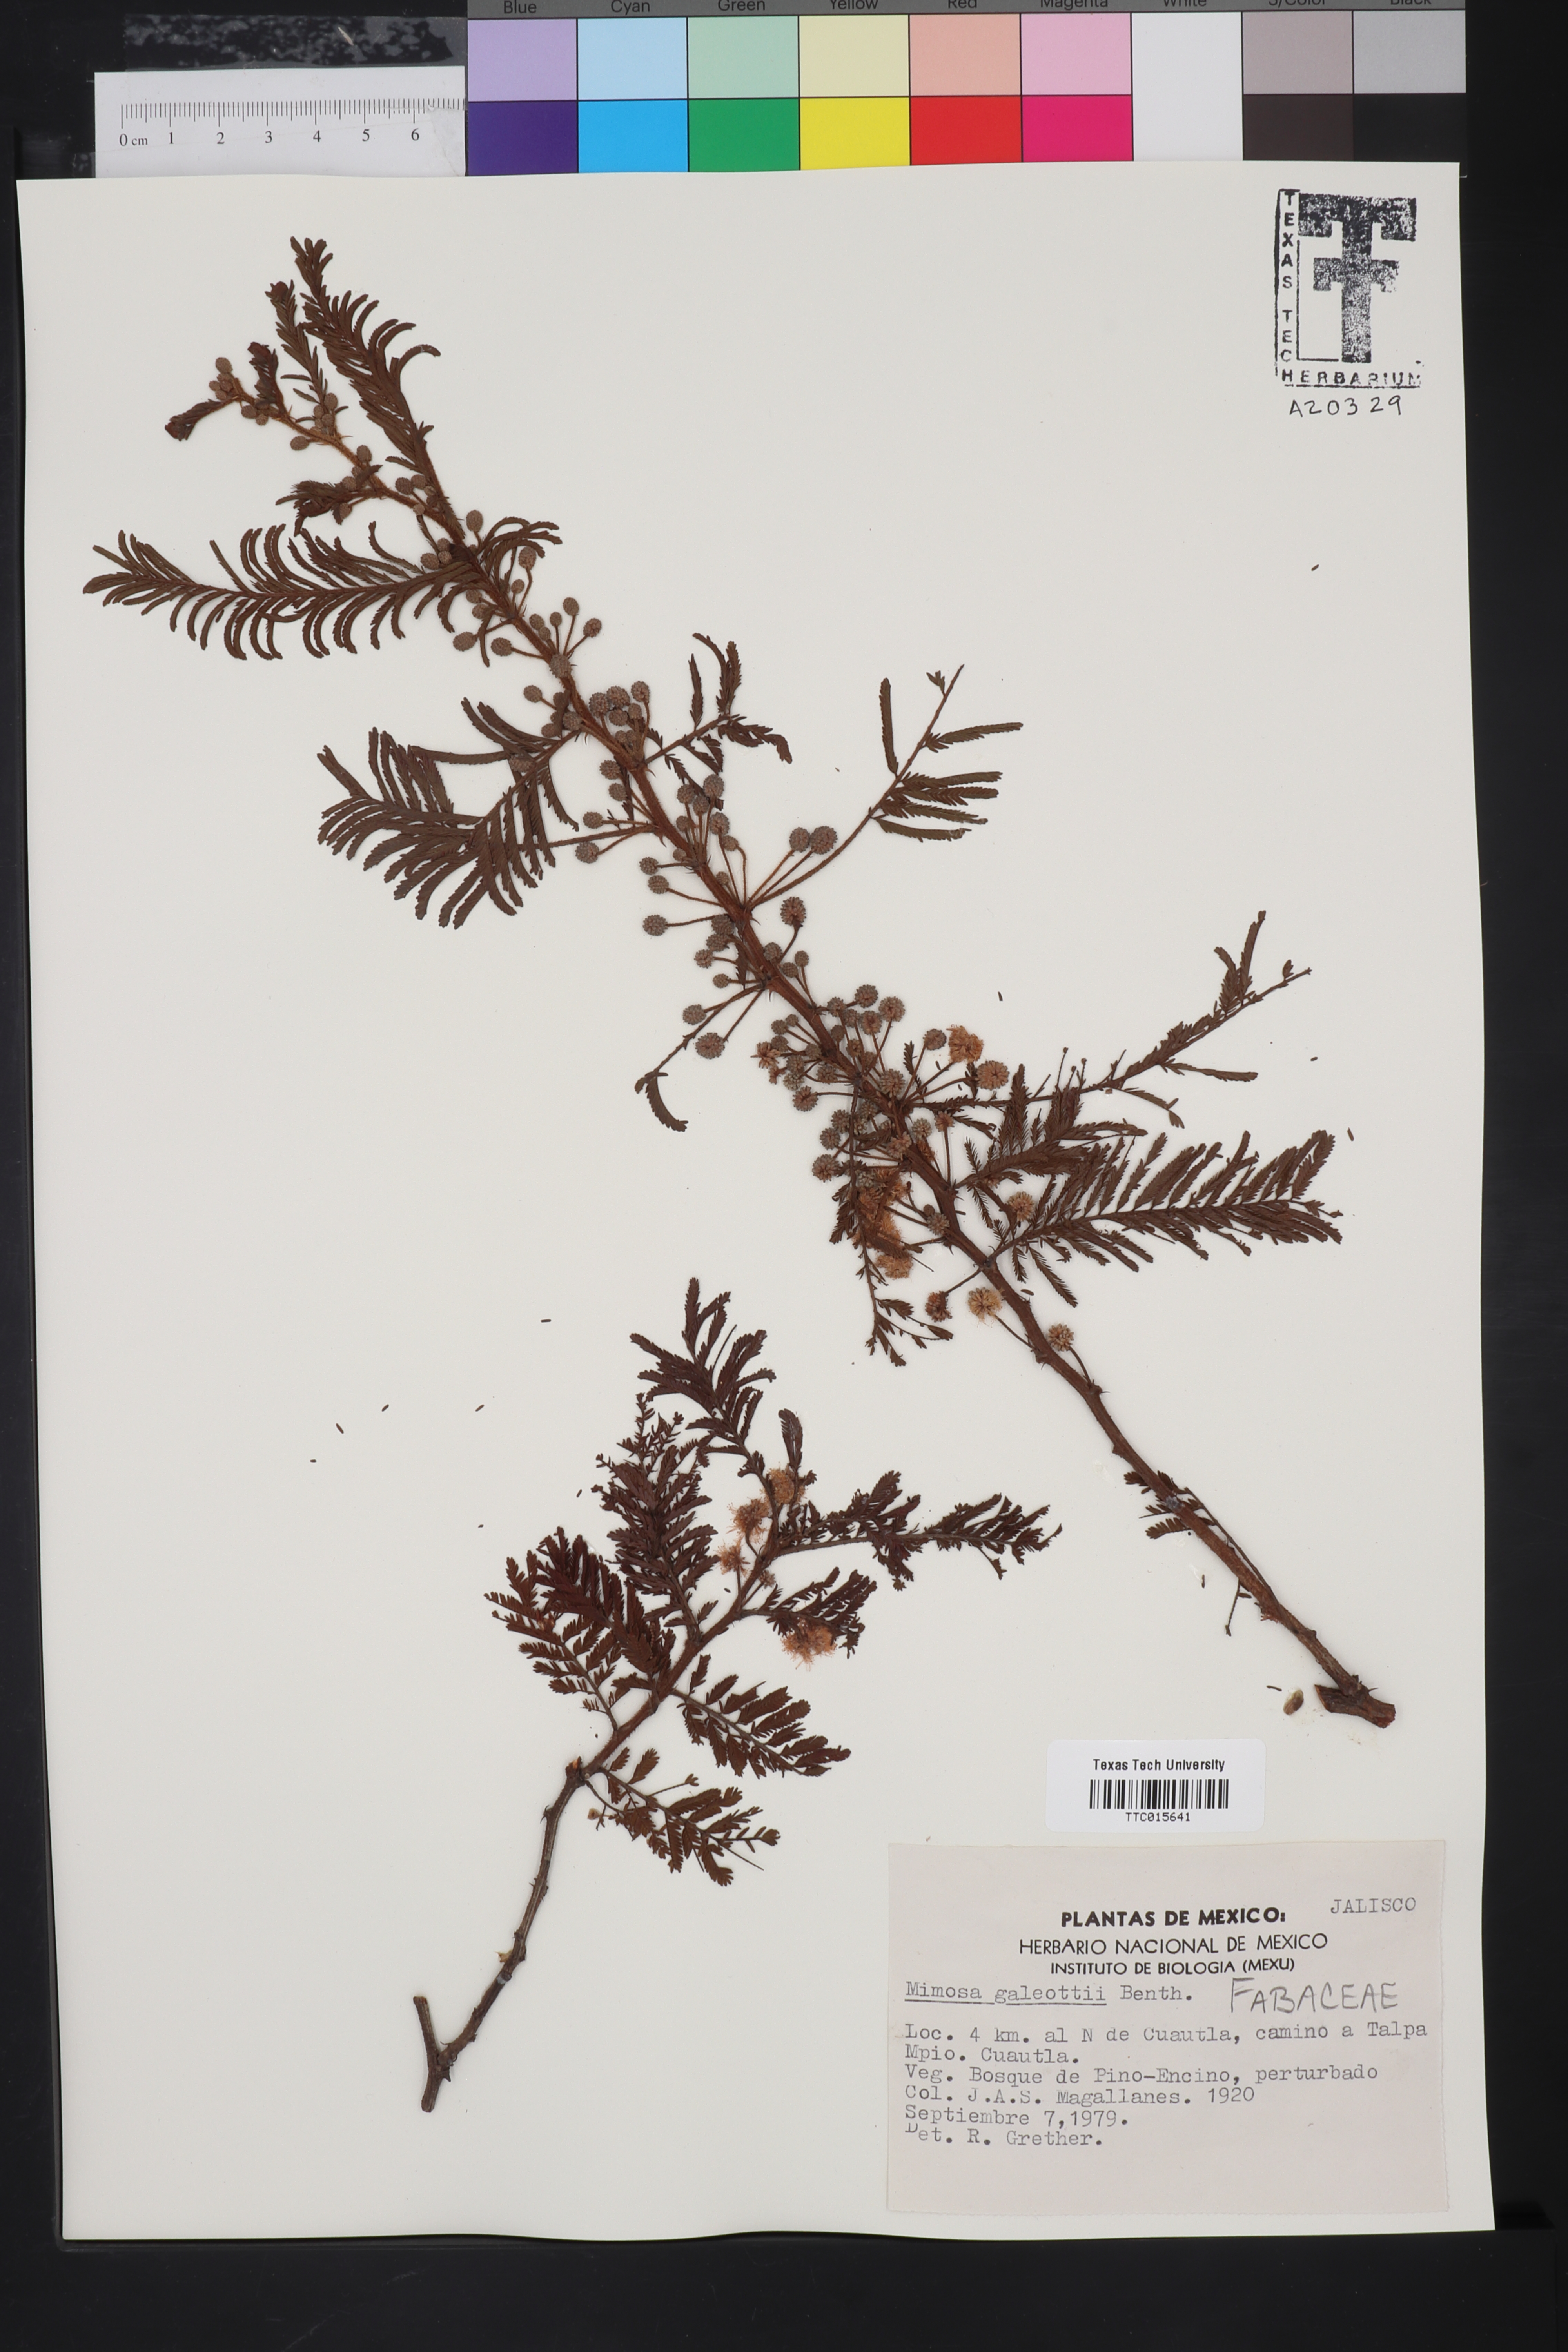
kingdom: Plantae
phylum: Tracheophyta
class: Magnoliopsida
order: Fabales
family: Fabaceae
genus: Mimosa
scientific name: Mimosa galeottii
